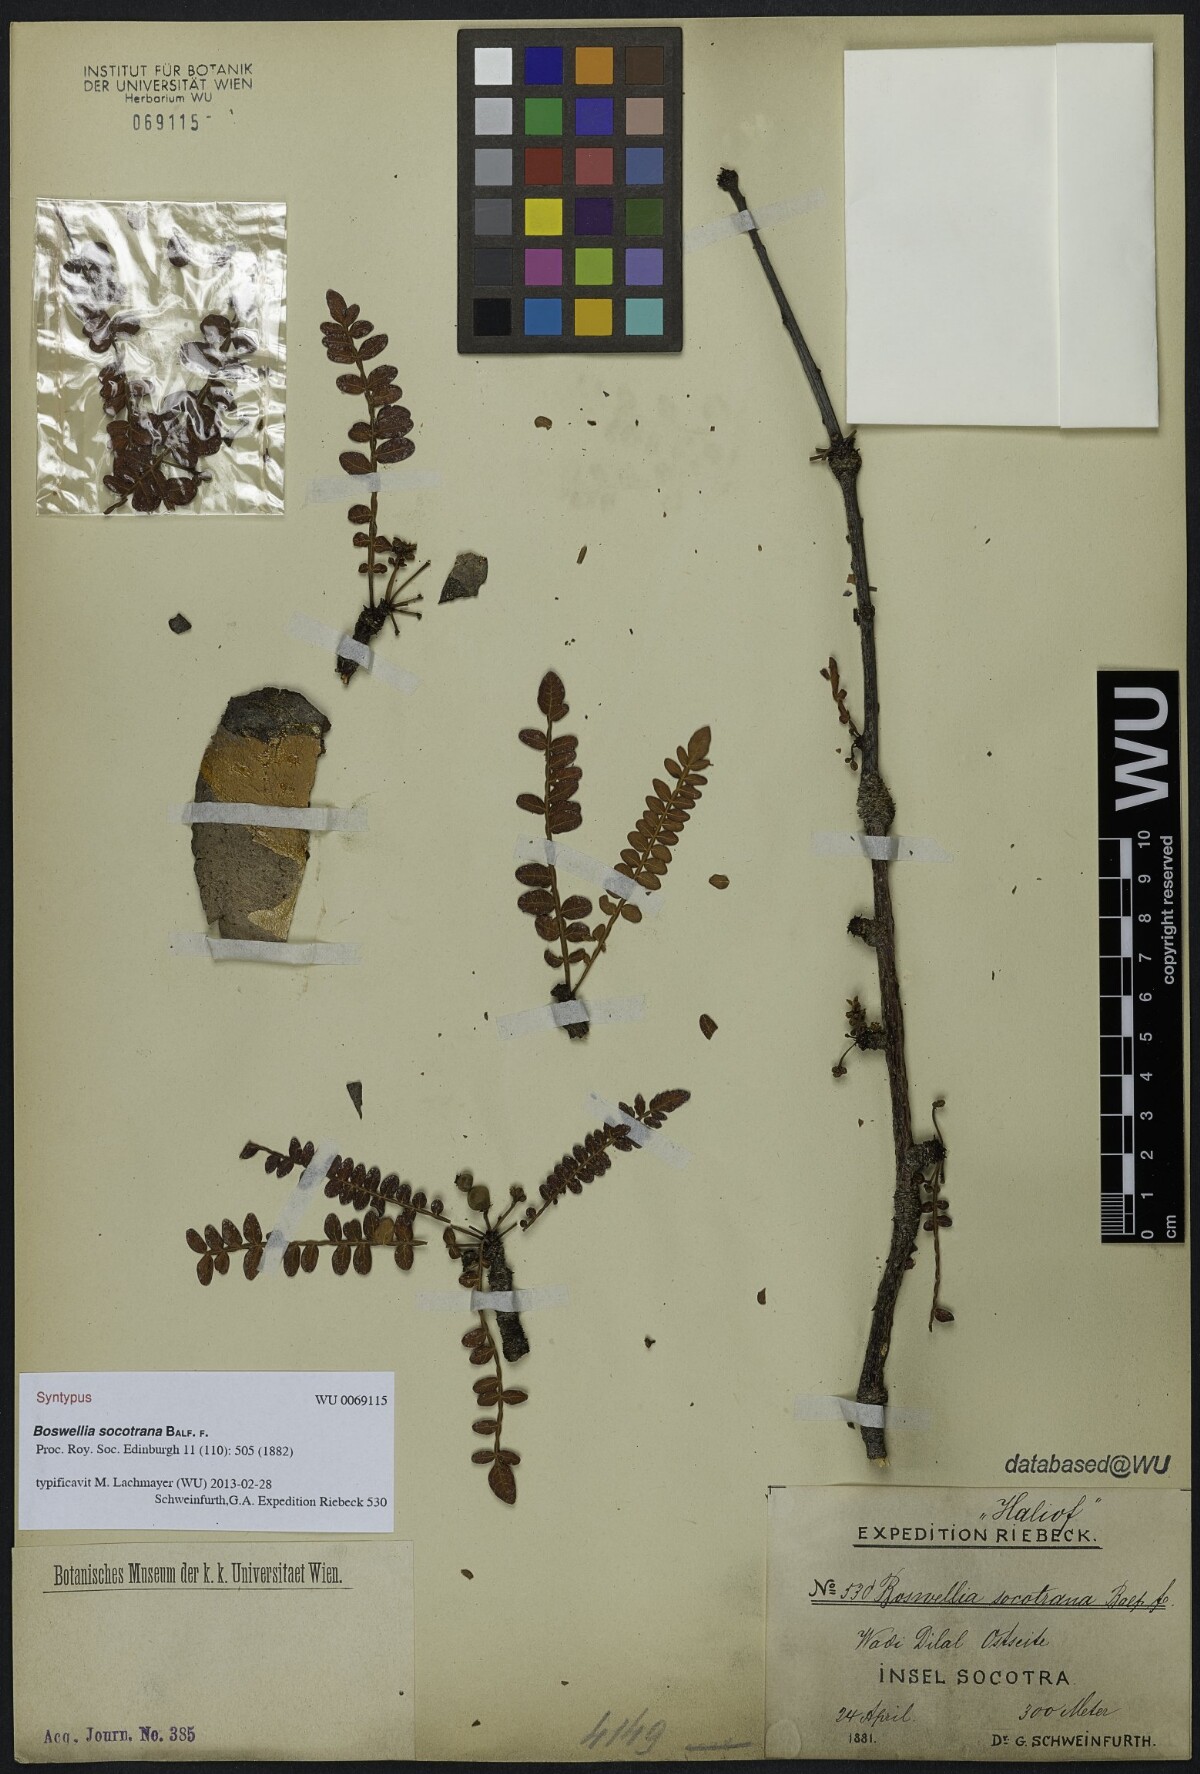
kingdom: Plantae
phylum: Tracheophyta
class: Magnoliopsida
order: Sapindales
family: Burseraceae
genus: Boswellia
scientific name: Boswellia socotrana
